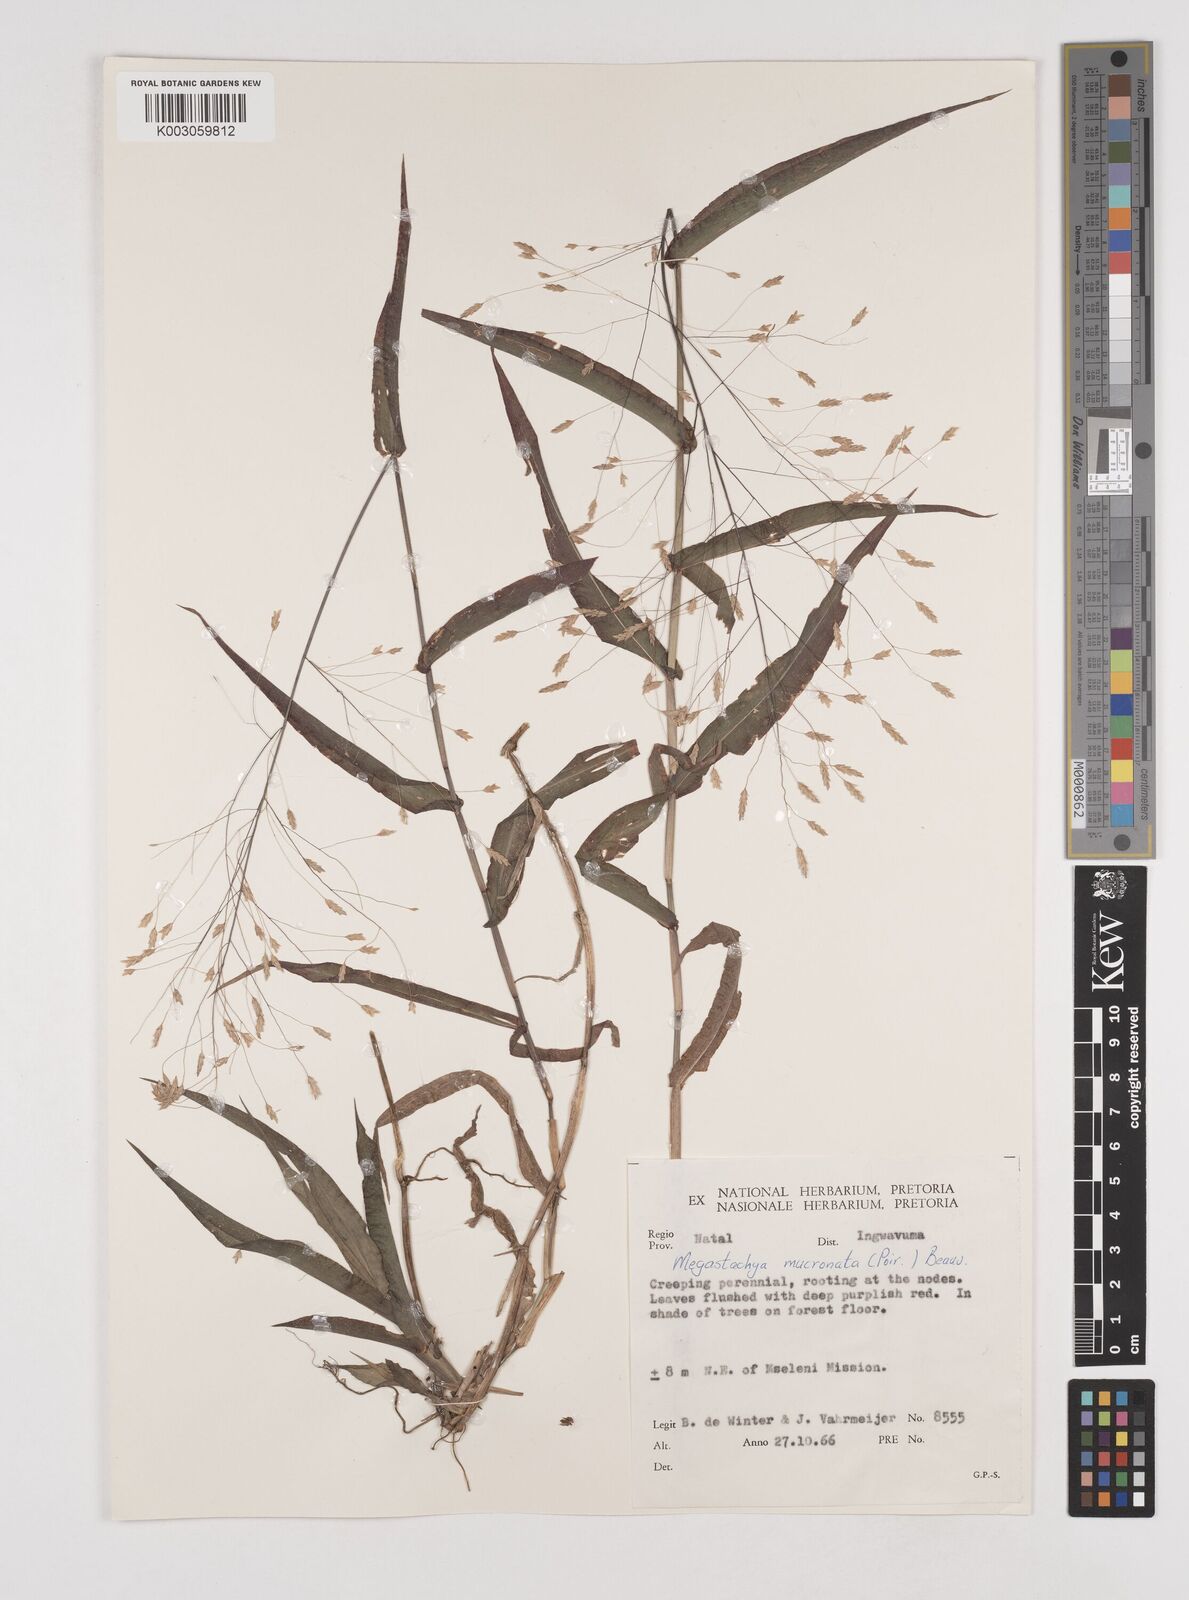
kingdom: Plantae
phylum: Tracheophyta
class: Liliopsida
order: Poales
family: Poaceae
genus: Megastachya
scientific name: Megastachya mucronata
